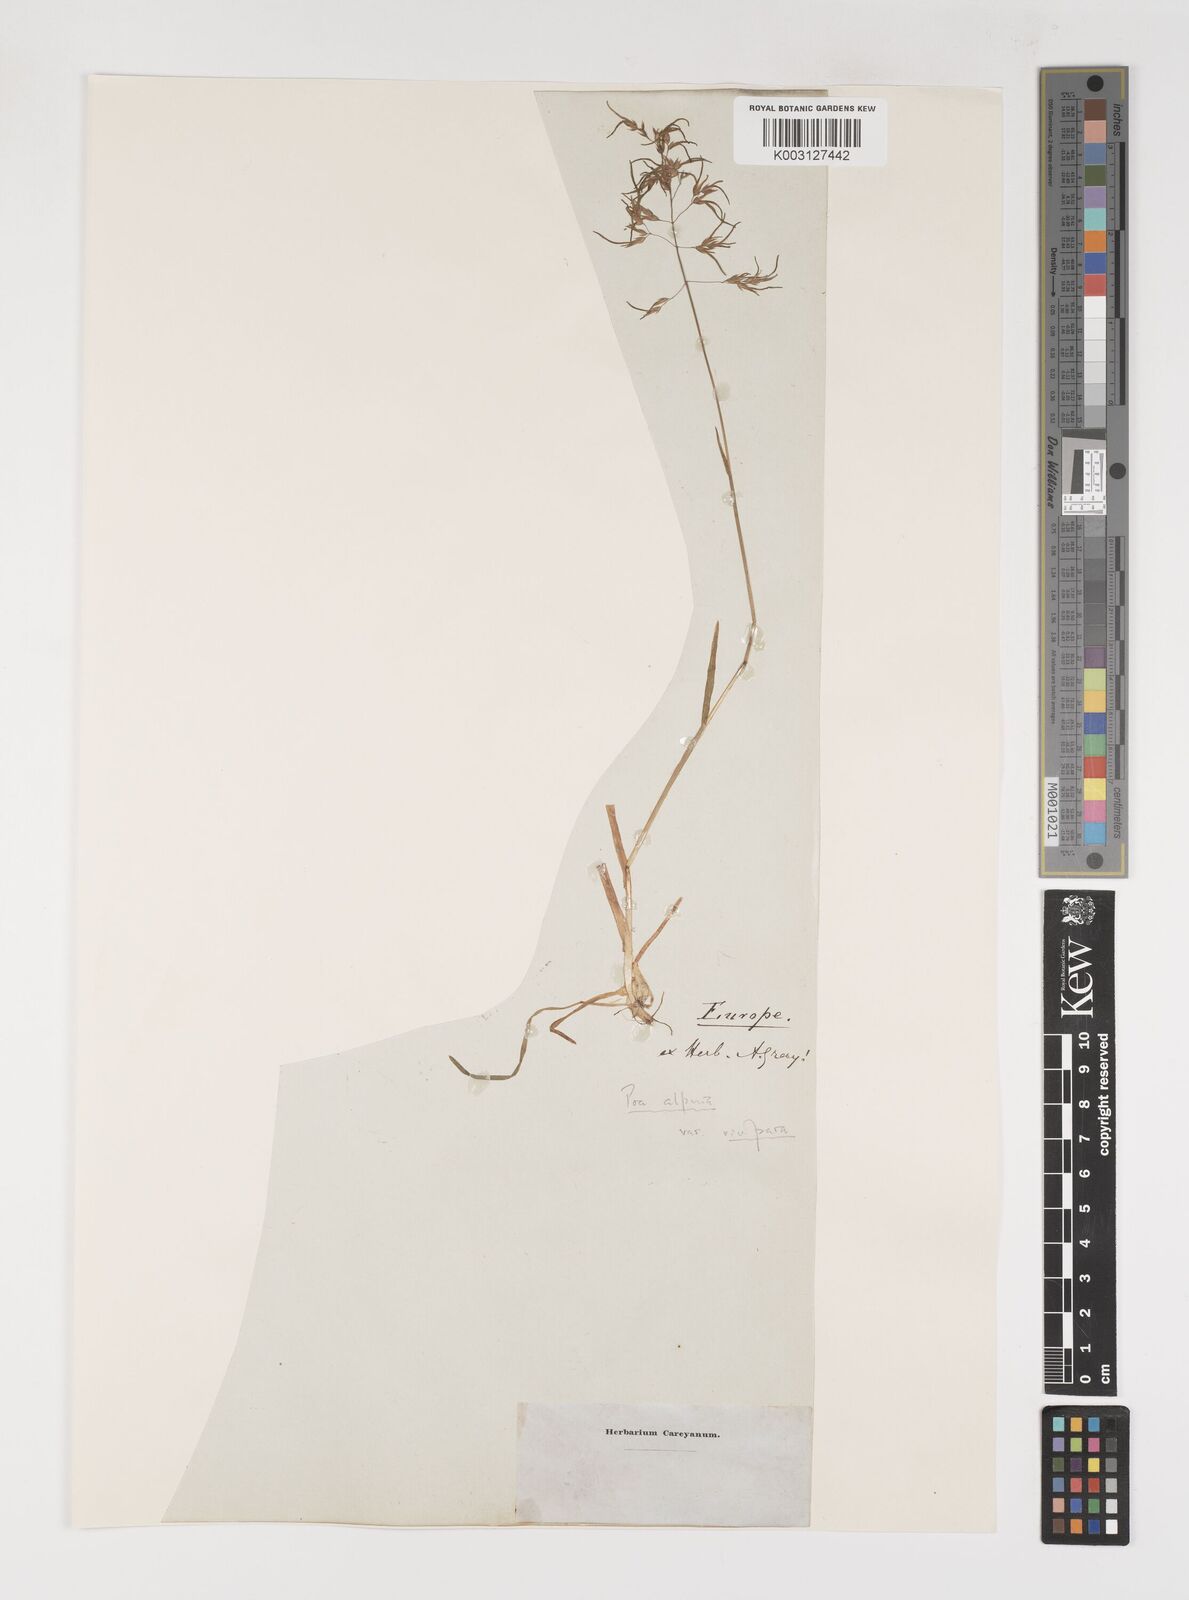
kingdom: Plantae
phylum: Tracheophyta
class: Liliopsida
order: Poales
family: Poaceae
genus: Poa
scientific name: Poa alpina
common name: Alpine bluegrass
